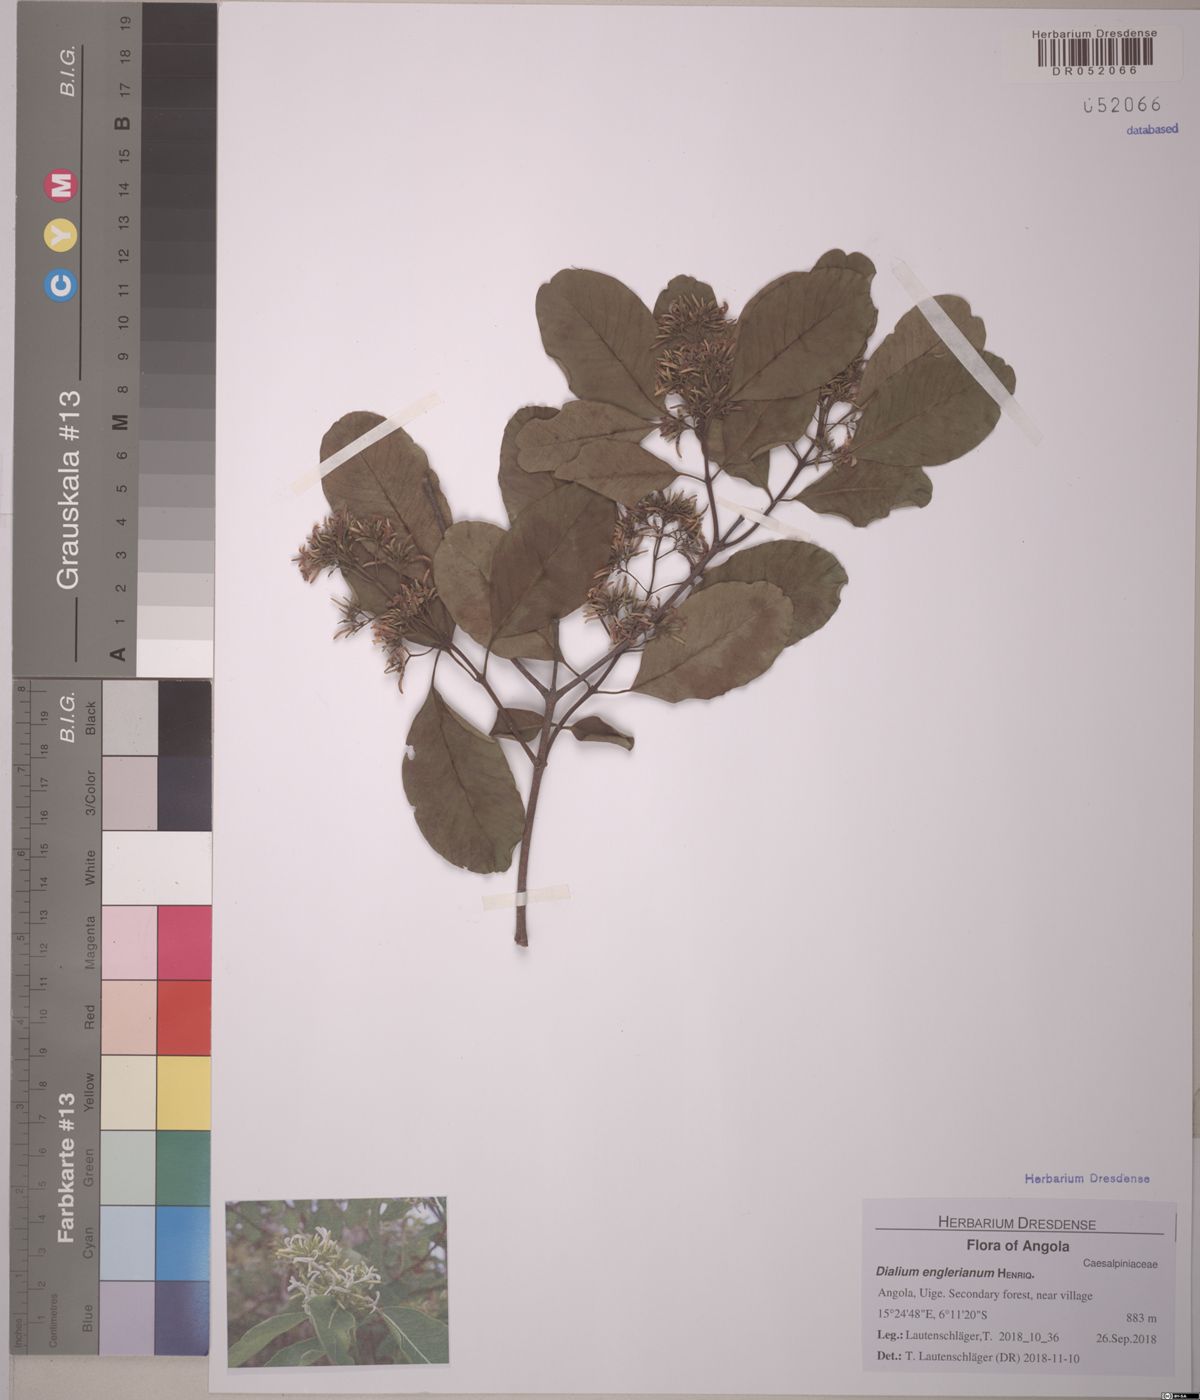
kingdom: Plantae
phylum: Tracheophyta
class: Magnoliopsida
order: Gentianales
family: Apocynaceae
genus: Diplorhynchus
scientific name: Diplorhynchus condylocarpon
